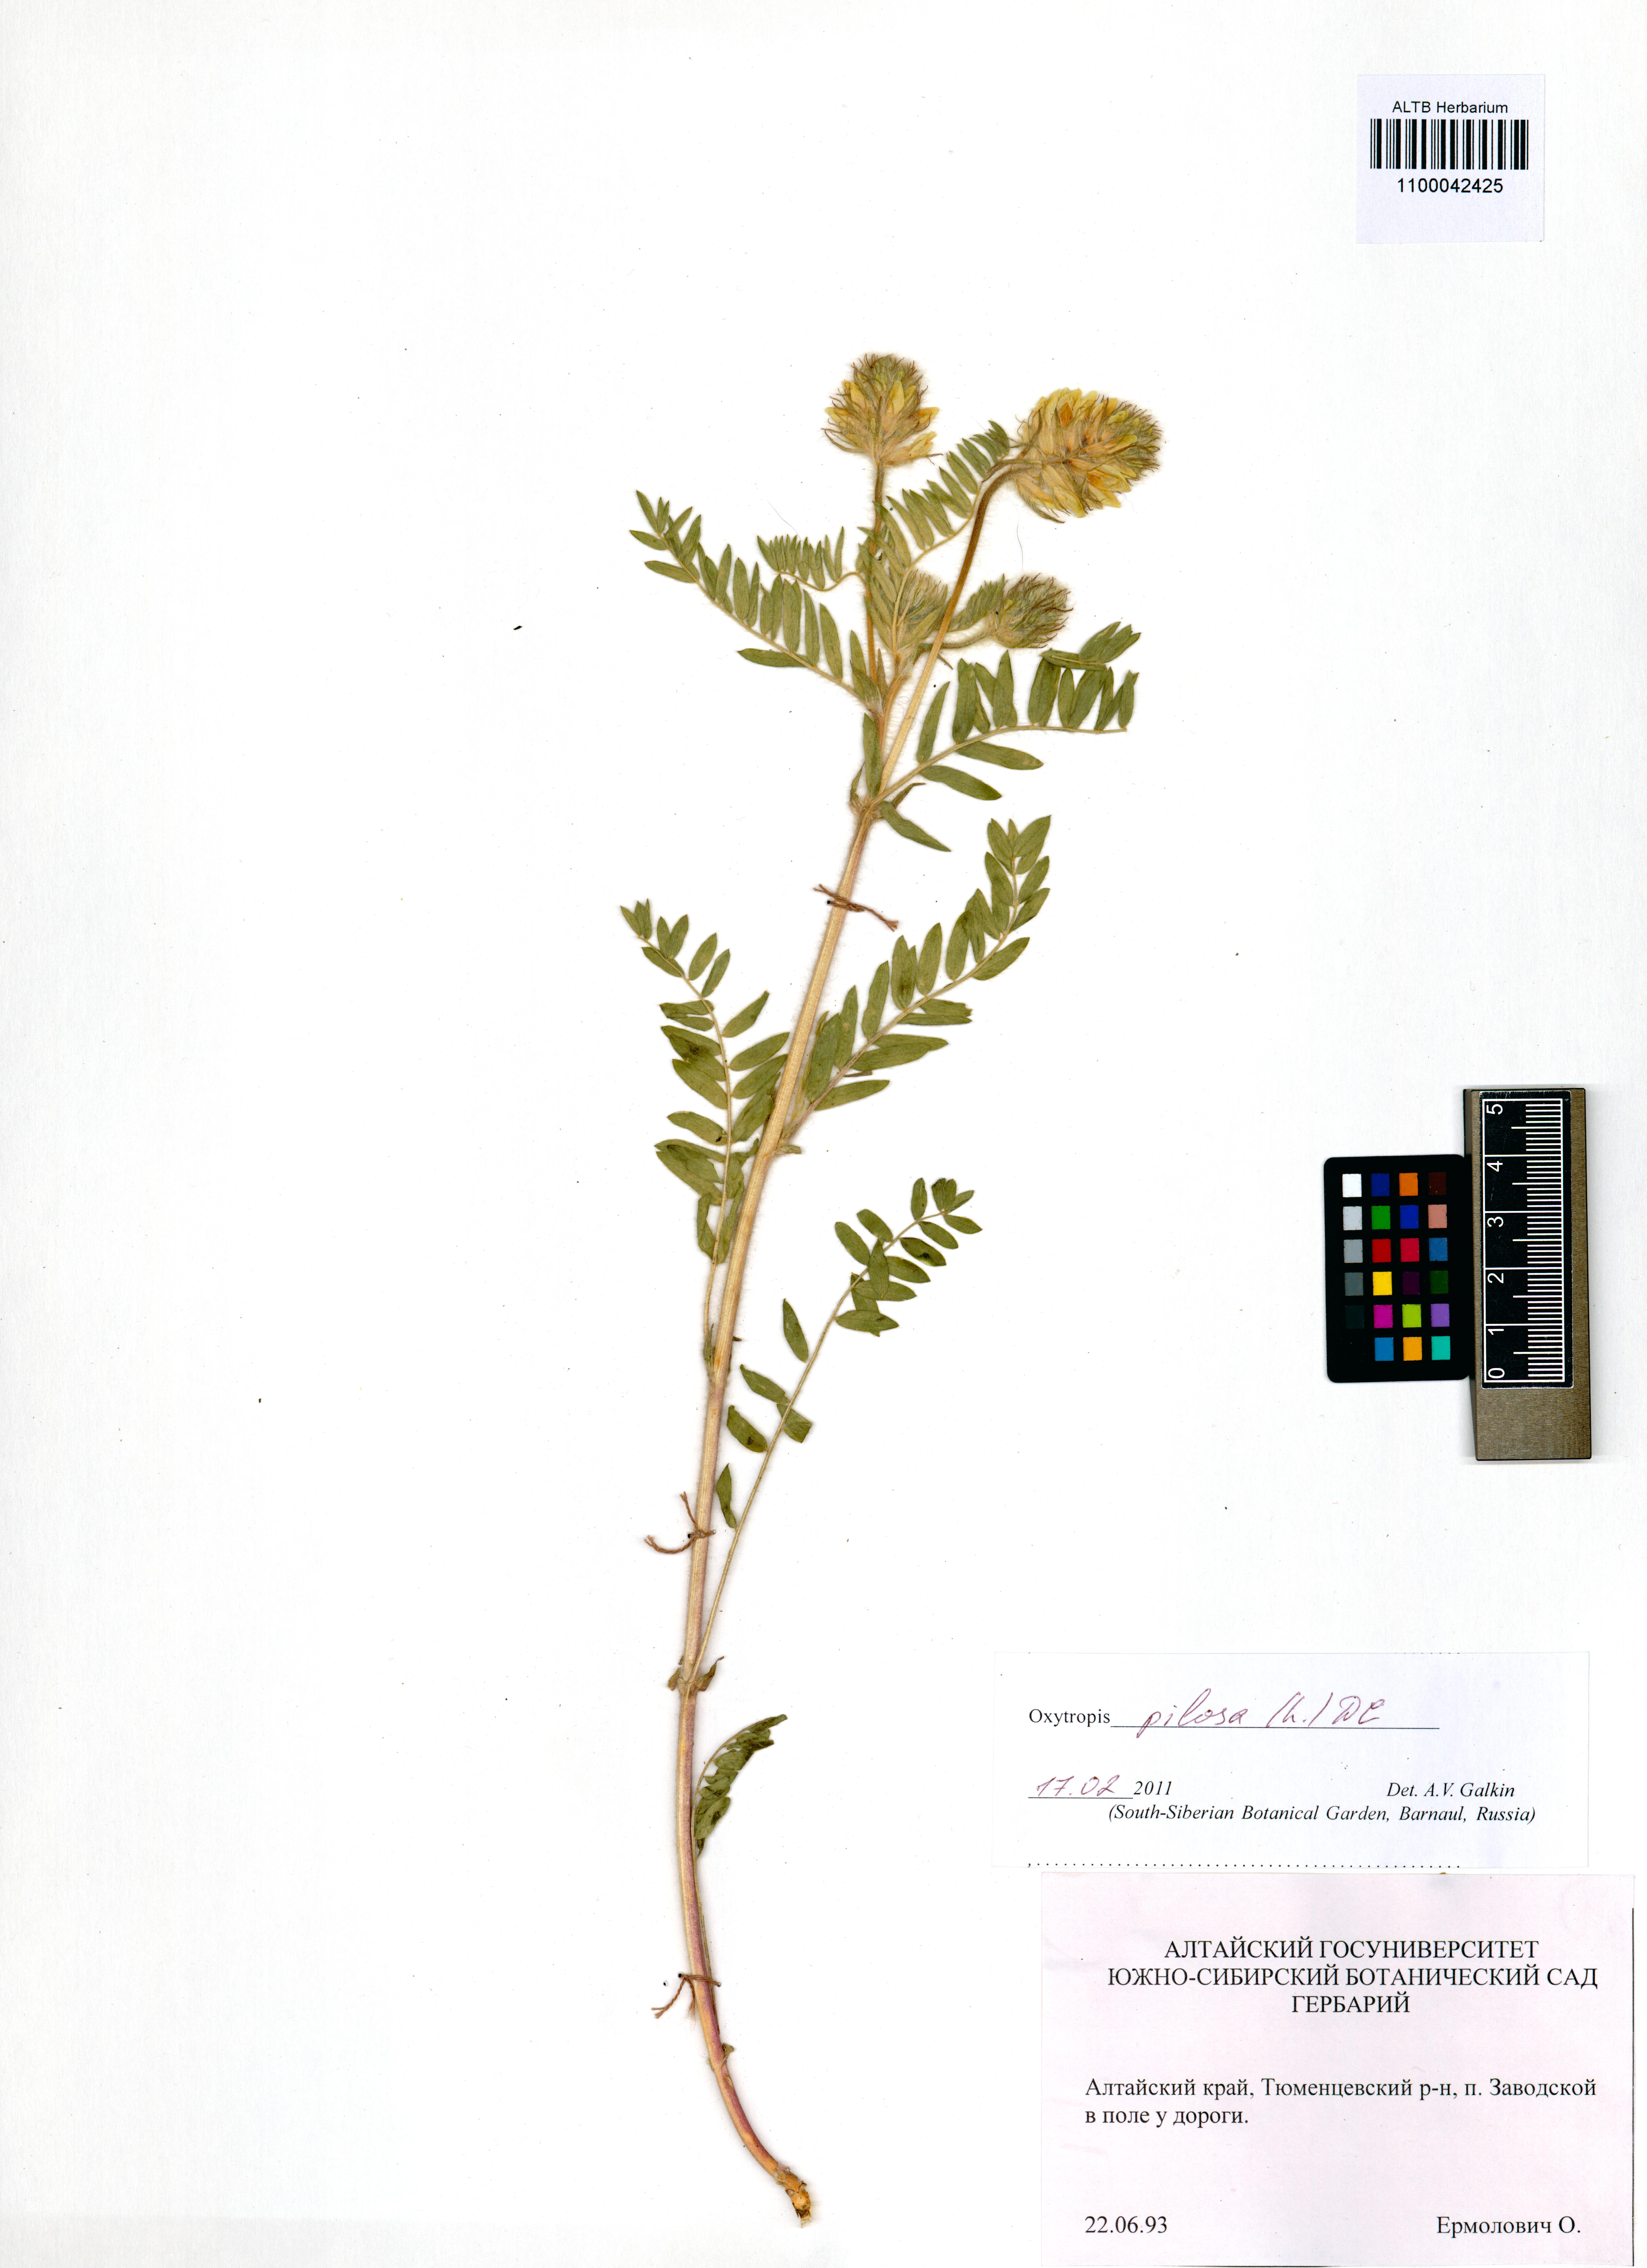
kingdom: Plantae
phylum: Tracheophyta
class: Magnoliopsida
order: Fabales
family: Fabaceae
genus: Oxytropis
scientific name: Oxytropis pilosa
